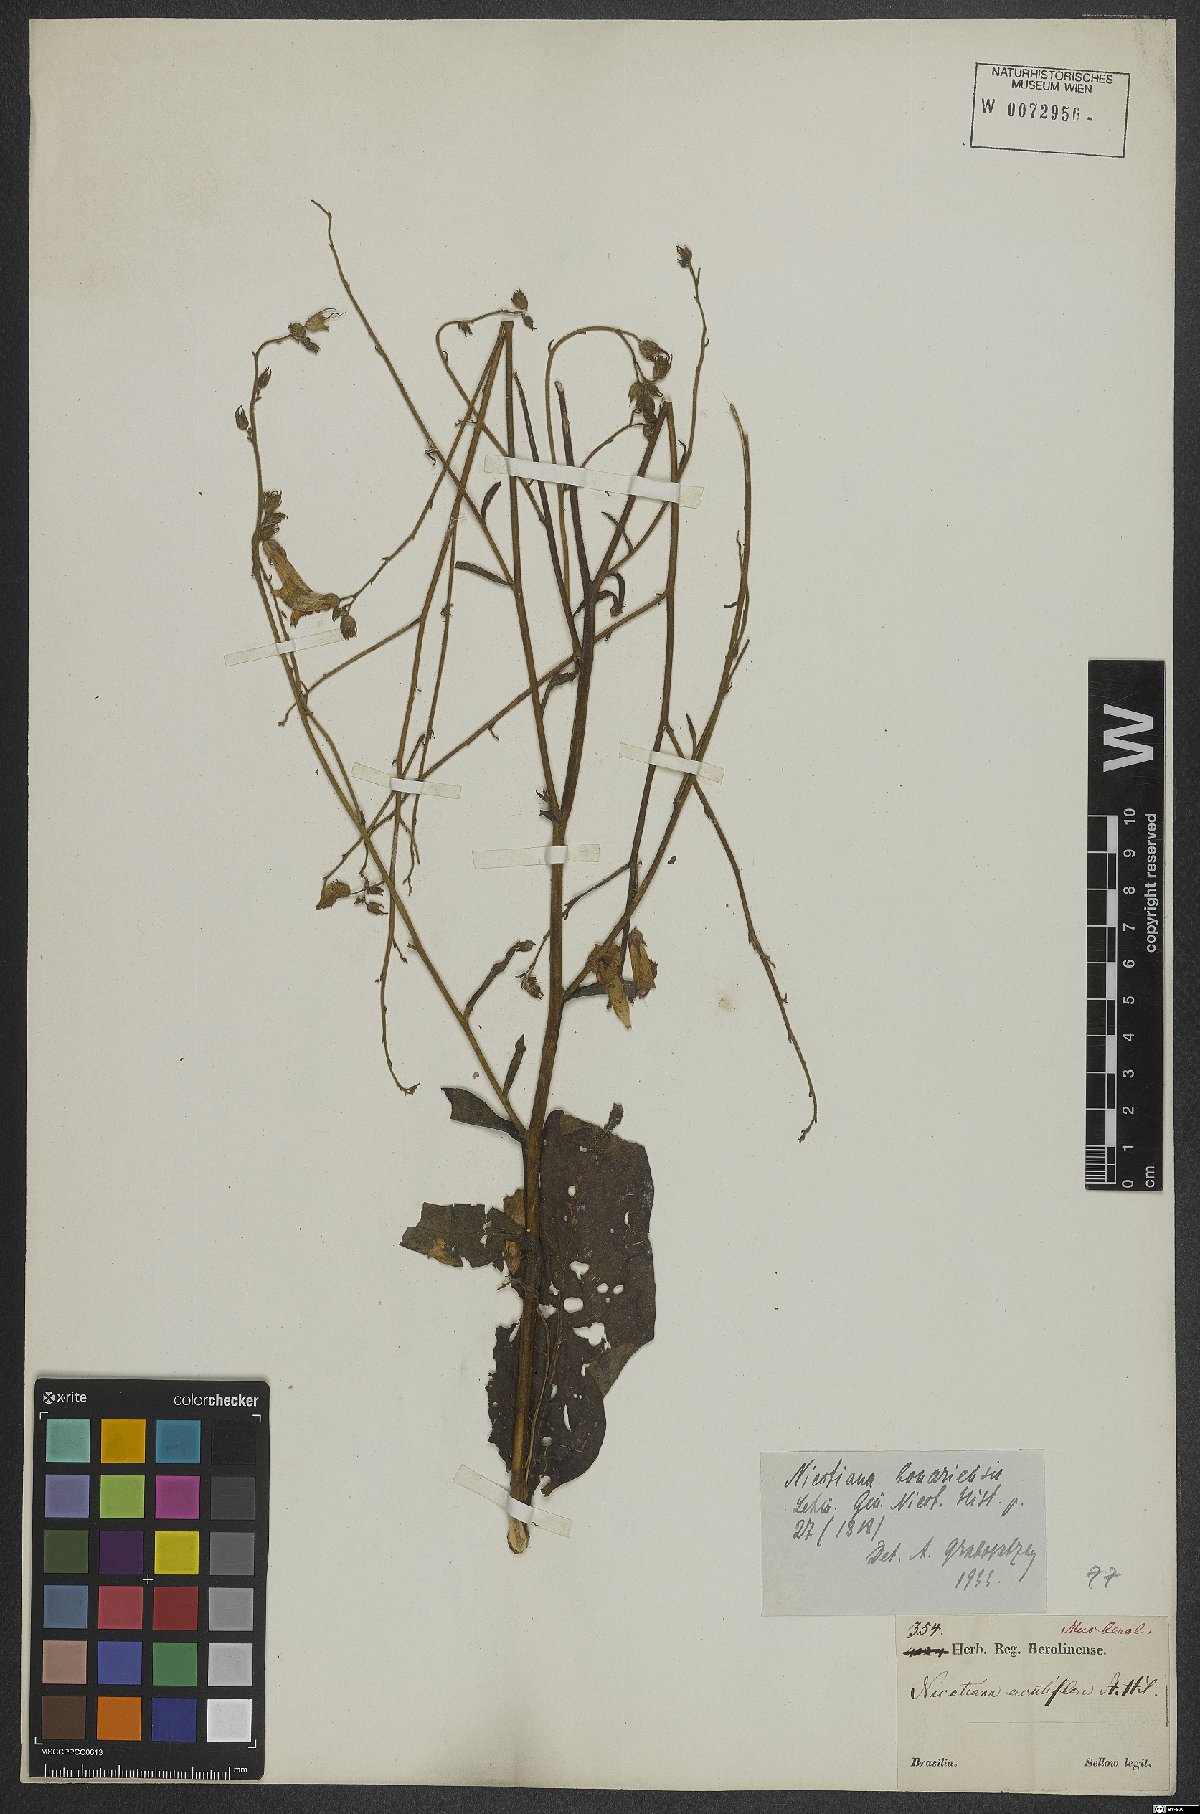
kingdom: Plantae
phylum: Tracheophyta
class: Magnoliopsida
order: Solanales
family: Solanaceae
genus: Nicotiana
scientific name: Nicotiana bonariensis
